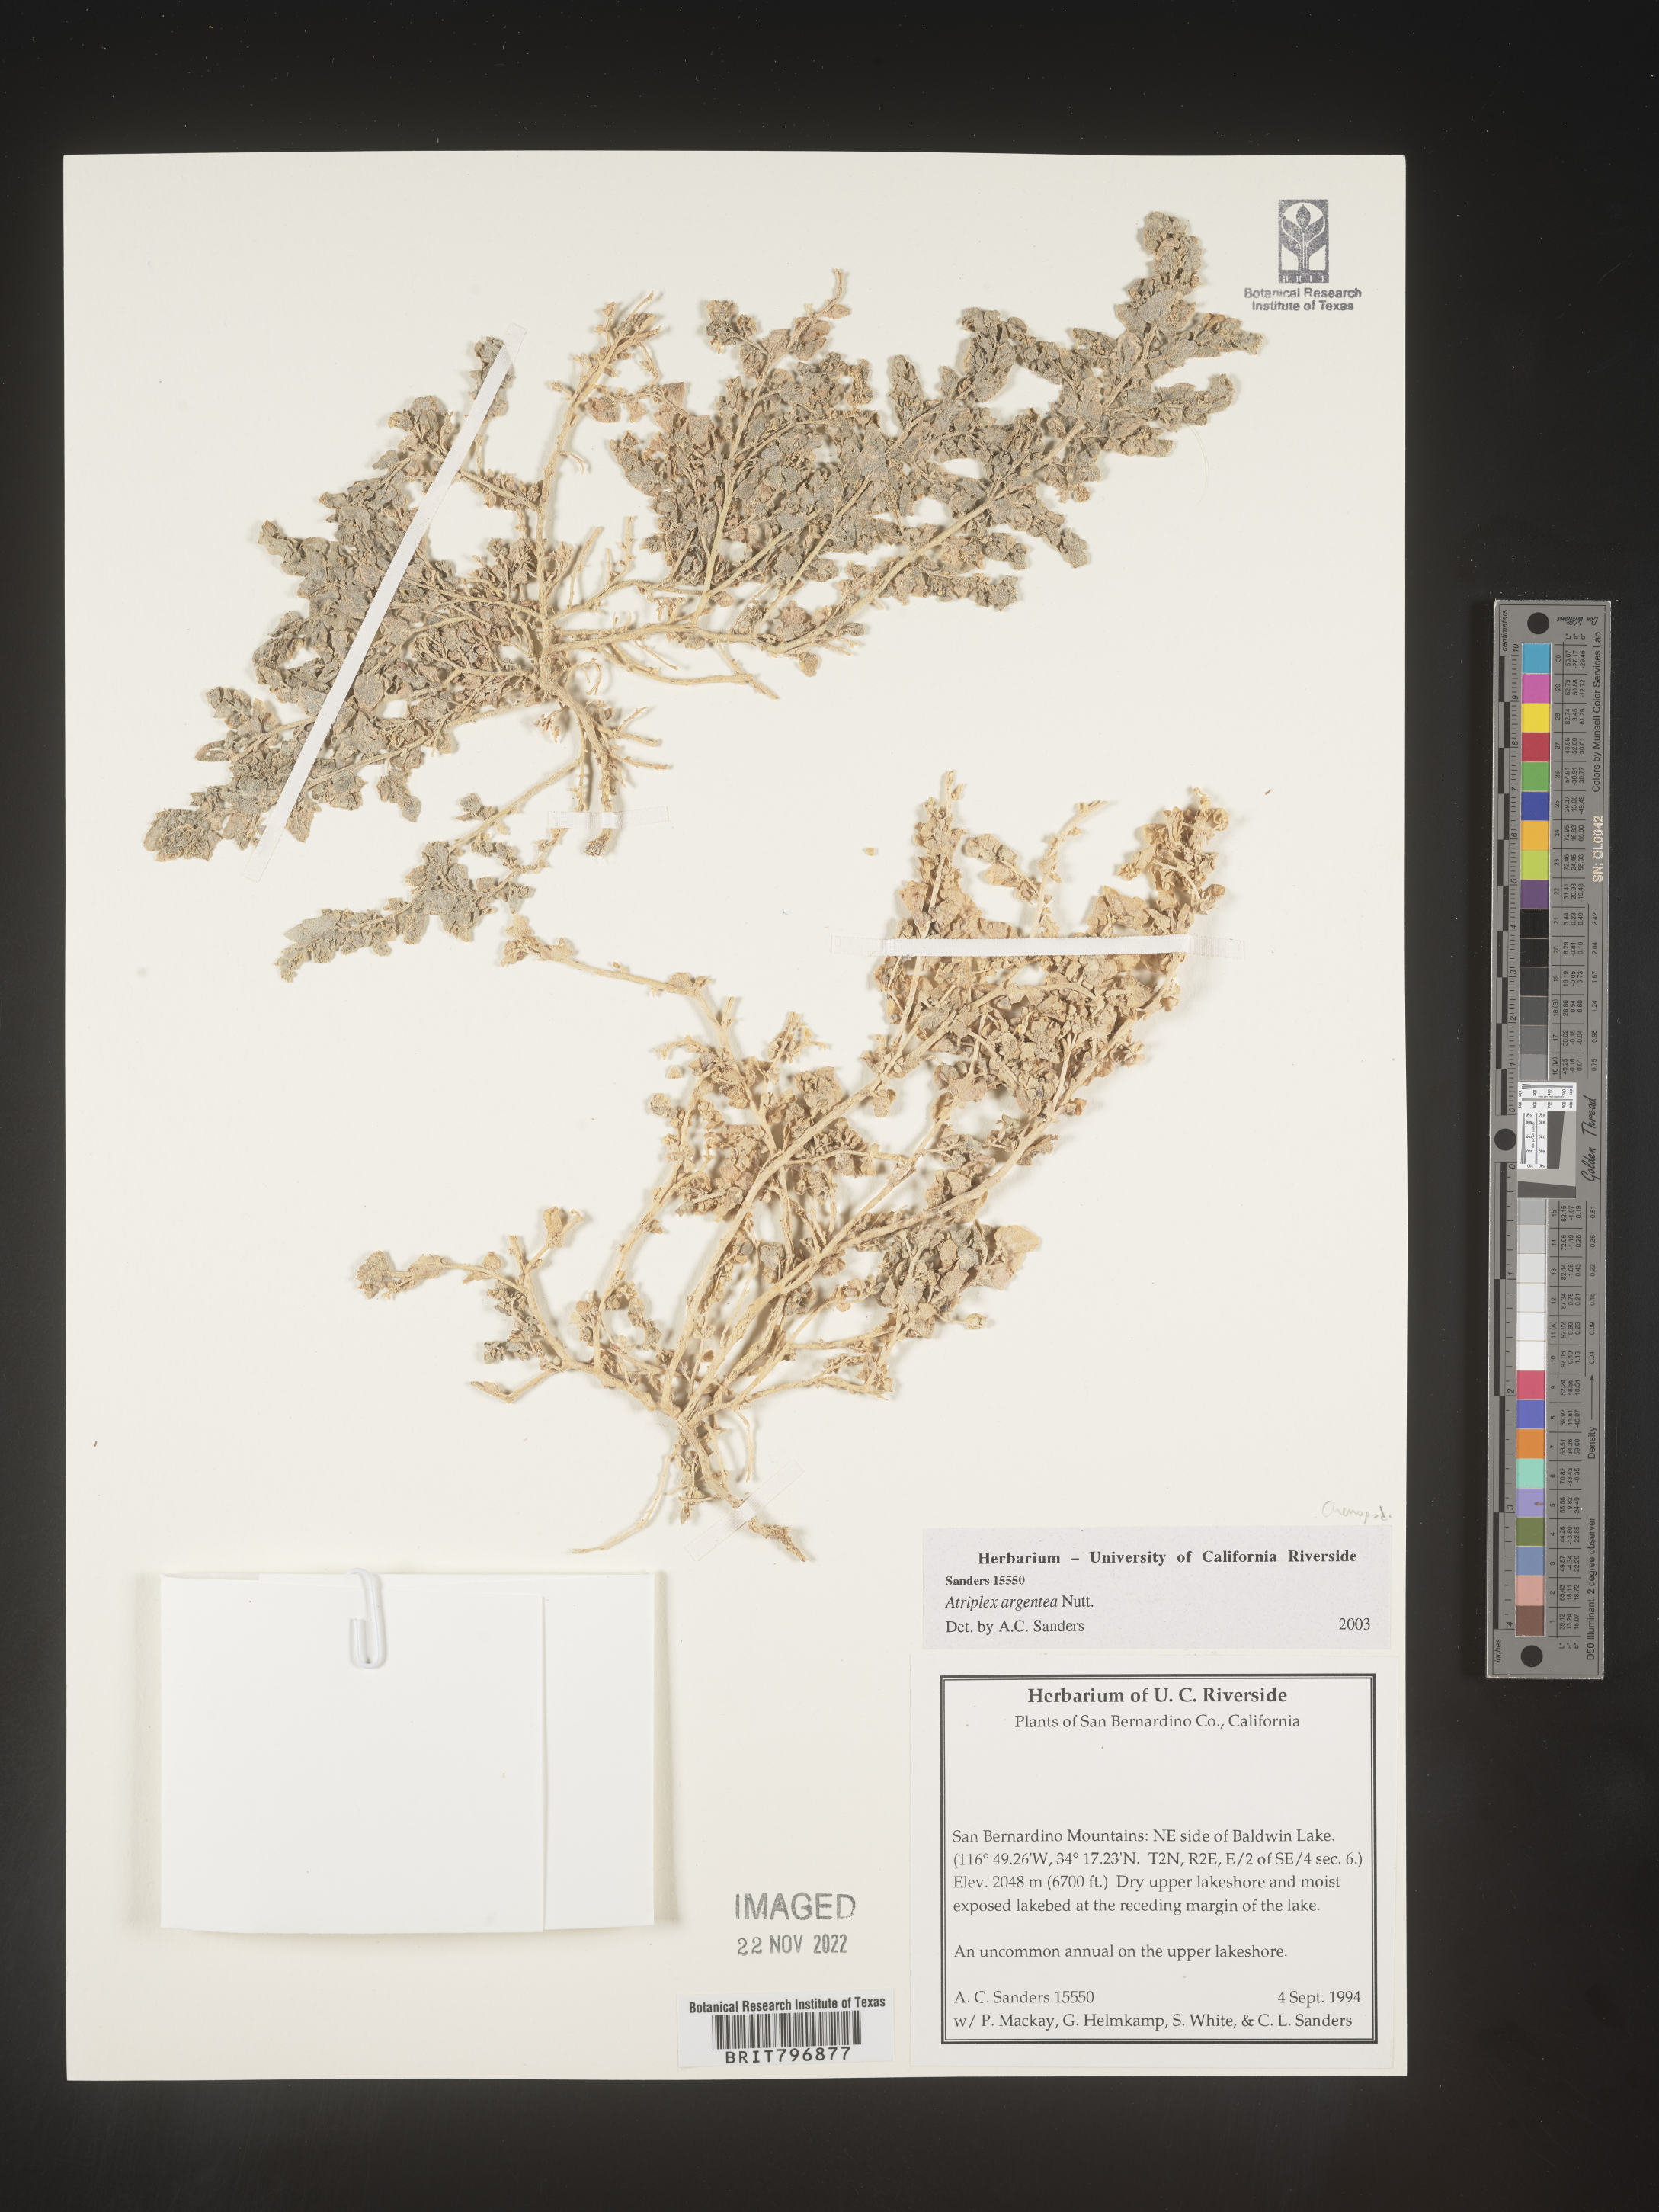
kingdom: Plantae
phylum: Tracheophyta
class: Magnoliopsida
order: Caryophyllales
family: Amaranthaceae
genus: Atriplex
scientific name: Atriplex argentea
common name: Silverscale
